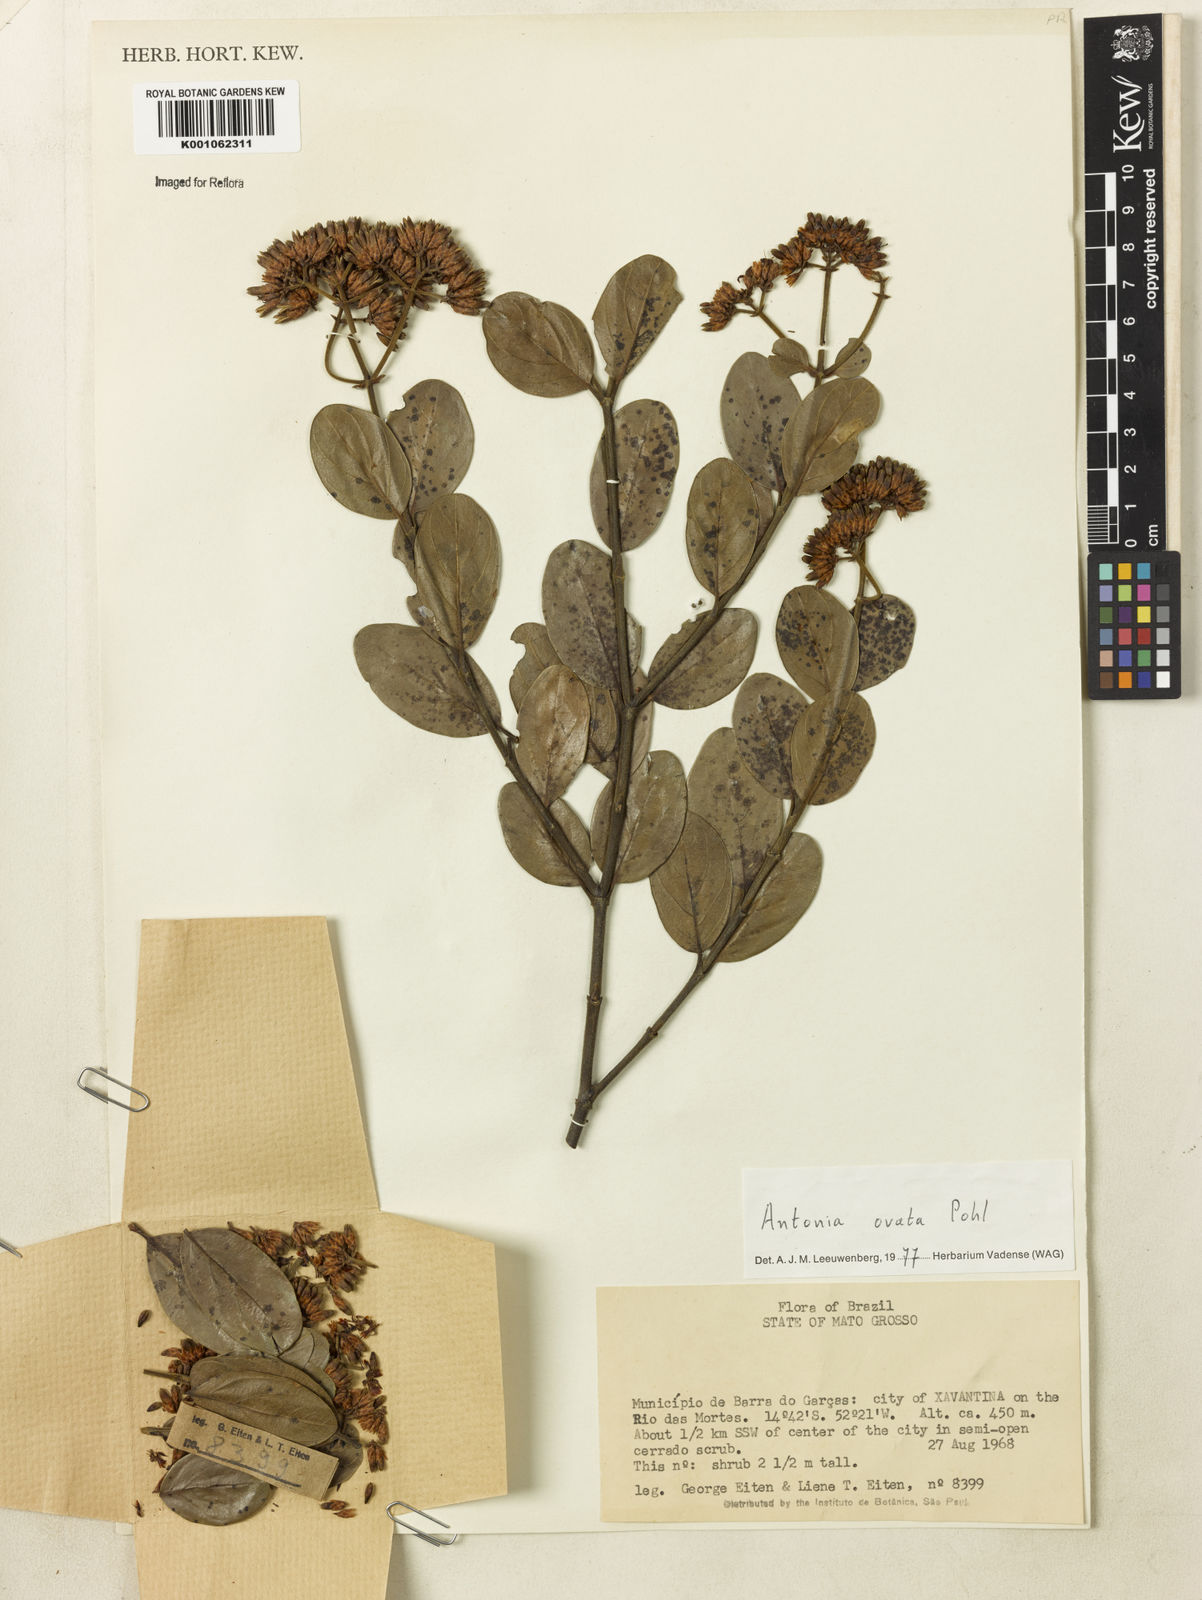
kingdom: Plantae
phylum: Tracheophyta
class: Magnoliopsida
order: Gentianales
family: Loganiaceae
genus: Antonia
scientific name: Antonia ovata
